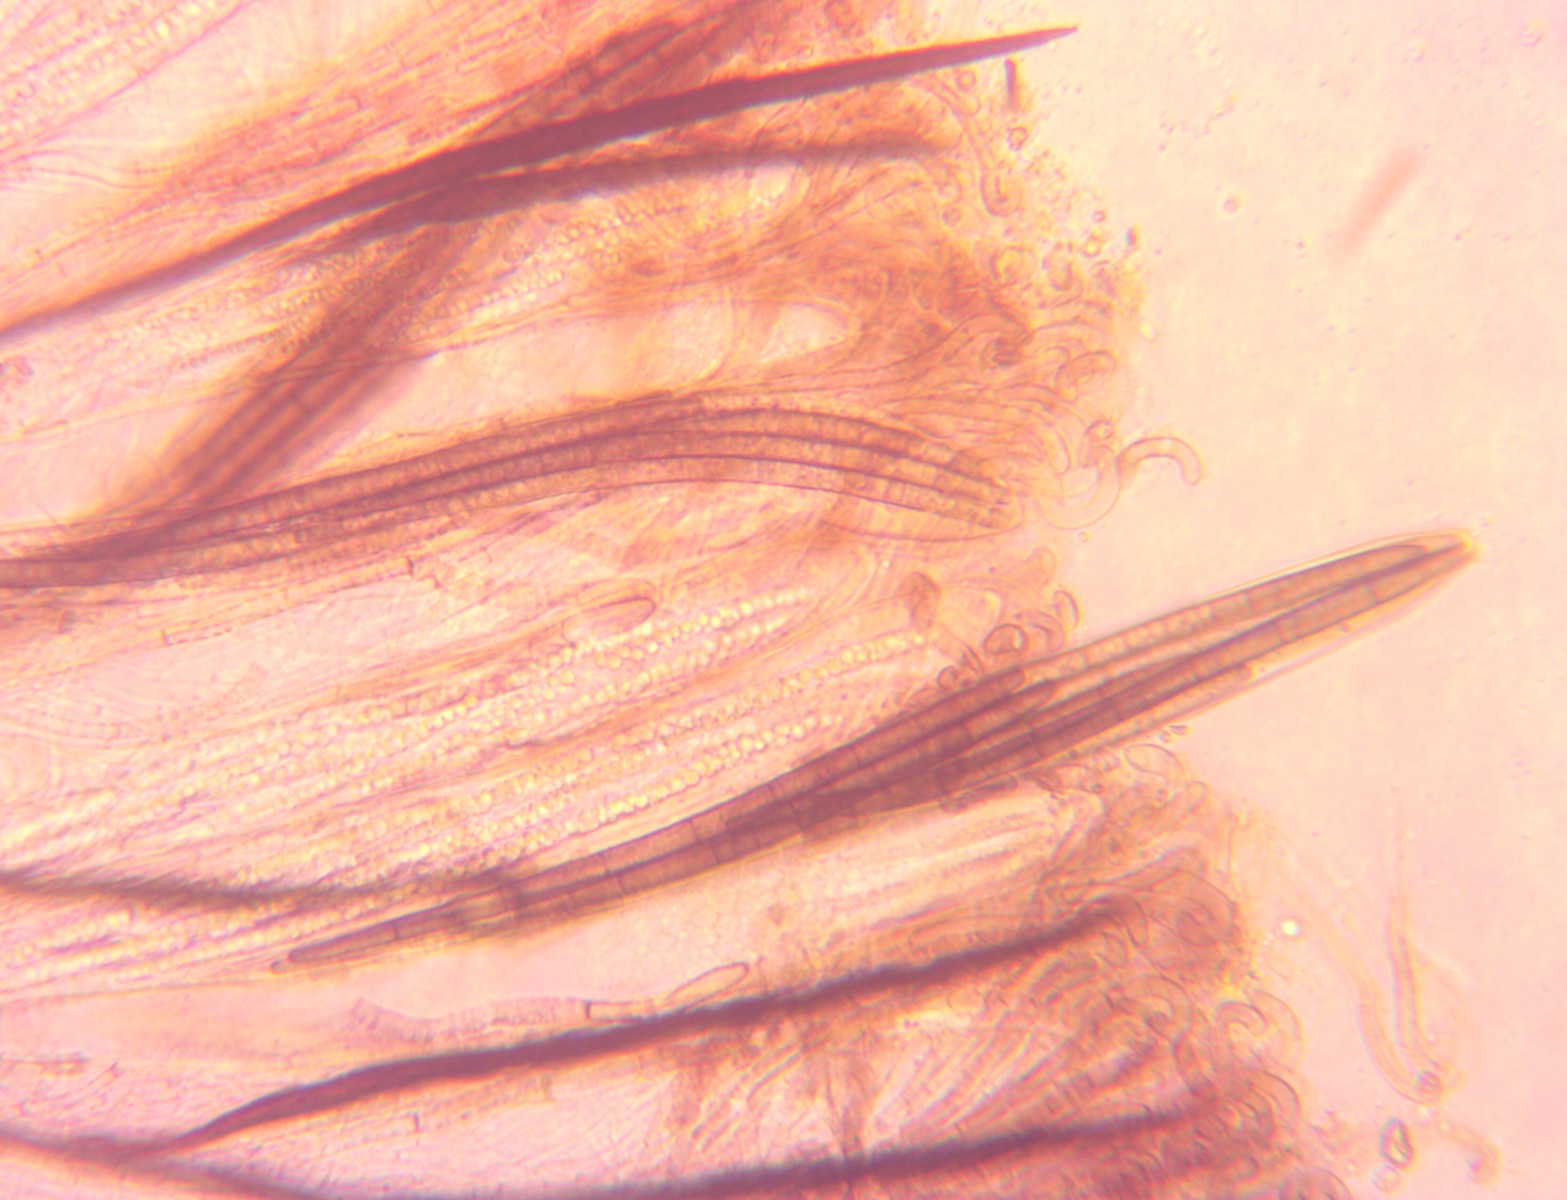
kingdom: Fungi
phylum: Ascomycota
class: Geoglossomycetes
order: Geoglossales
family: Geoglossaceae
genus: Trichoglossum
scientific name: Trichoglossum octopartitum
